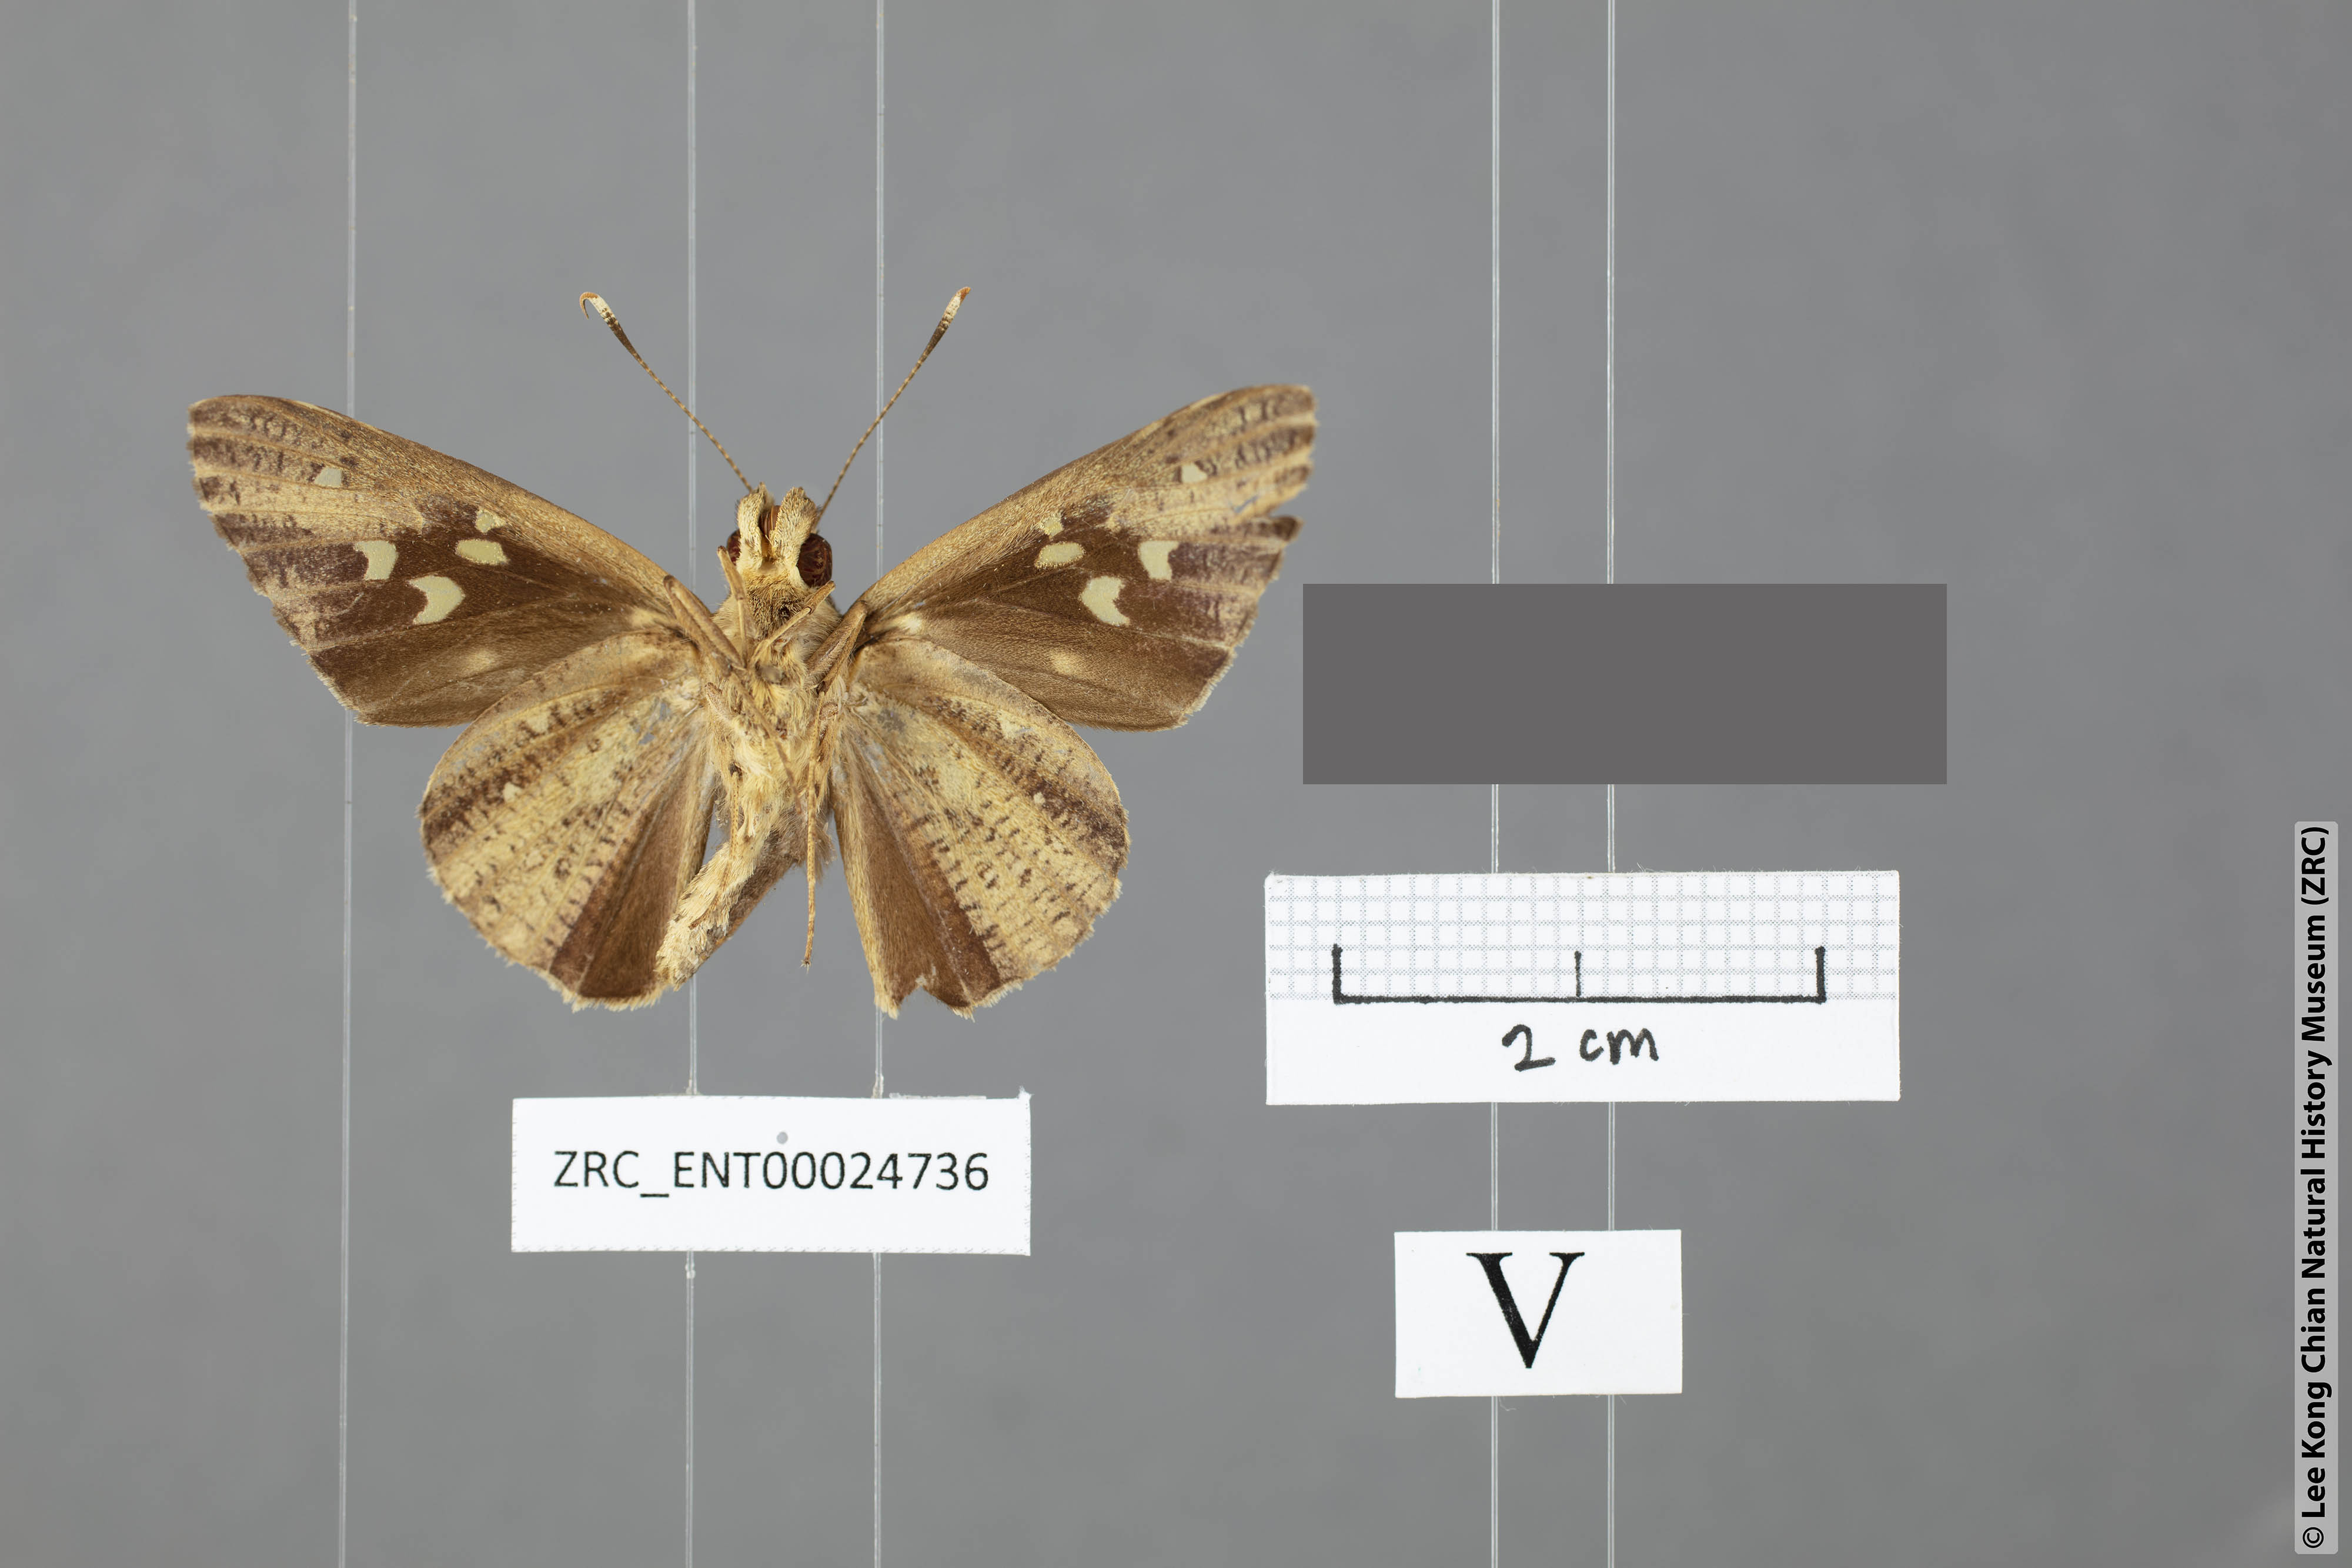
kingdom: Animalia
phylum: Arthropoda
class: Insecta
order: Lepidoptera
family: Hesperiidae
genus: Hidari
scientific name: Hidari bhawani
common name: Veined palmer
